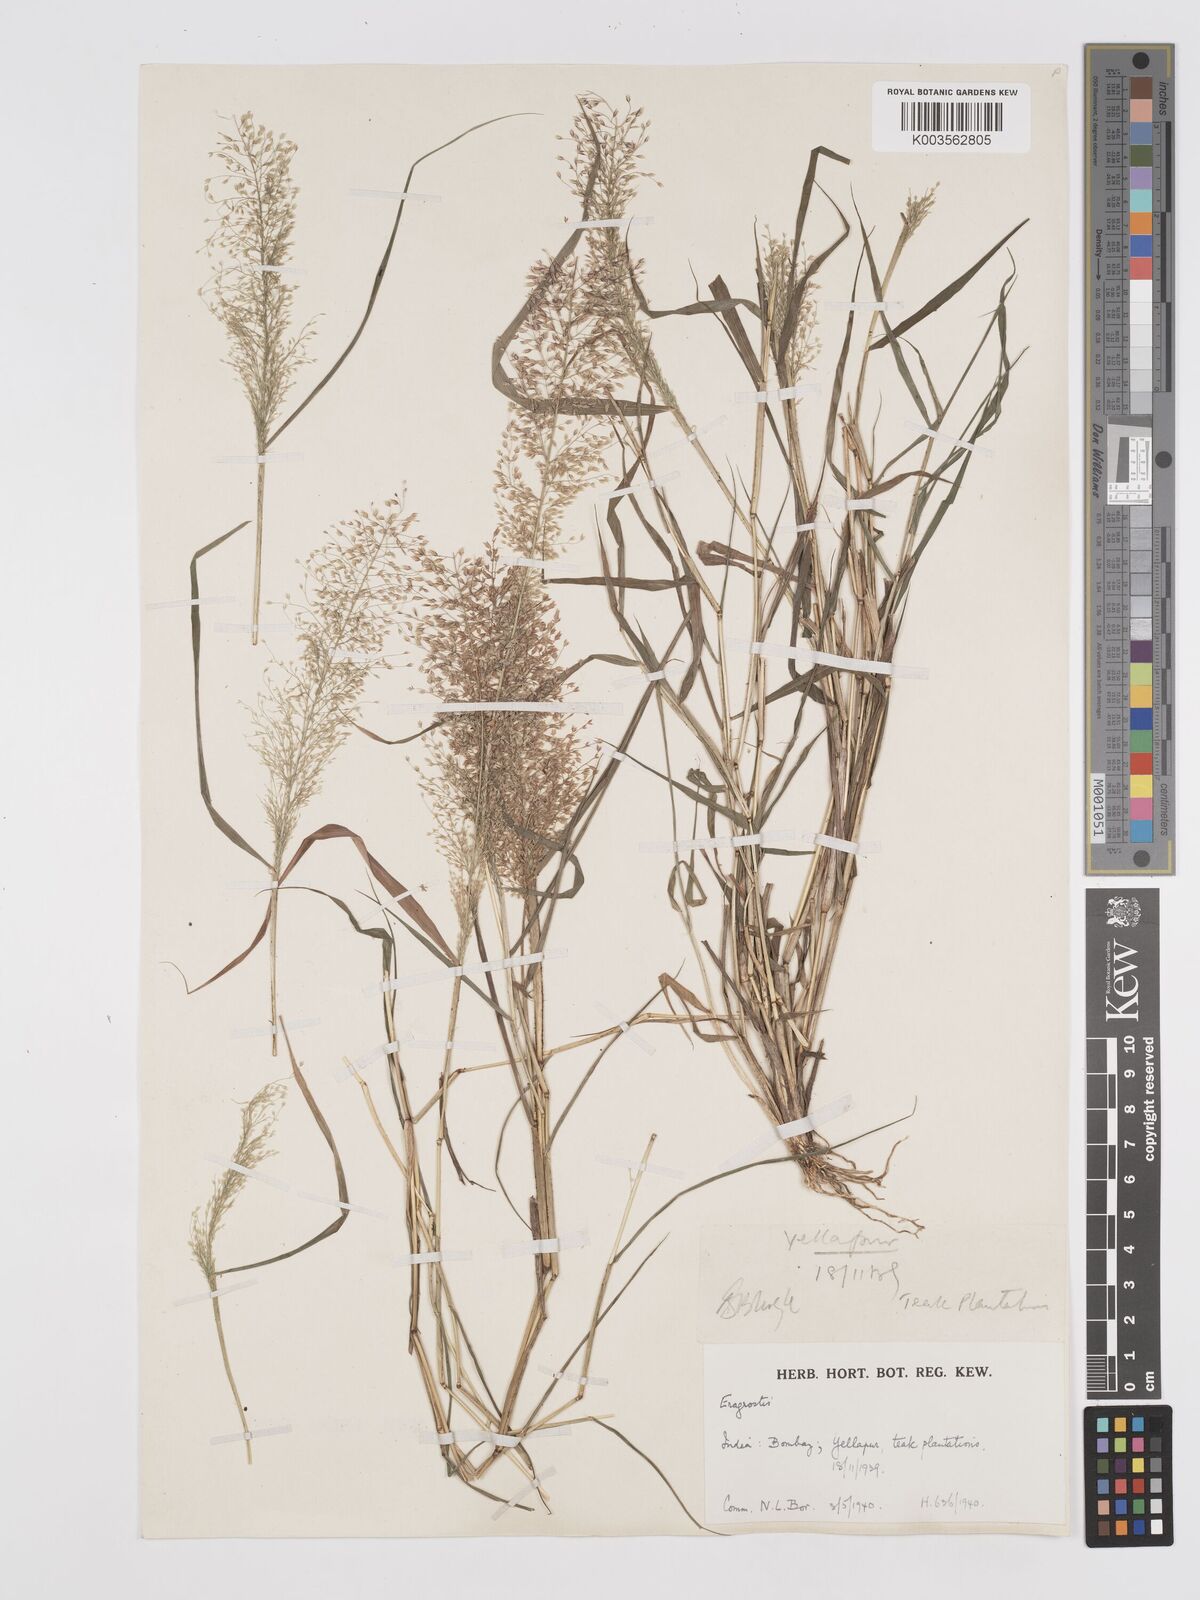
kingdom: Plantae
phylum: Tracheophyta
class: Liliopsida
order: Poales
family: Poaceae
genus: Eragrostis
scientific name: Eragrostis viscosa
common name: Sticky love grass
